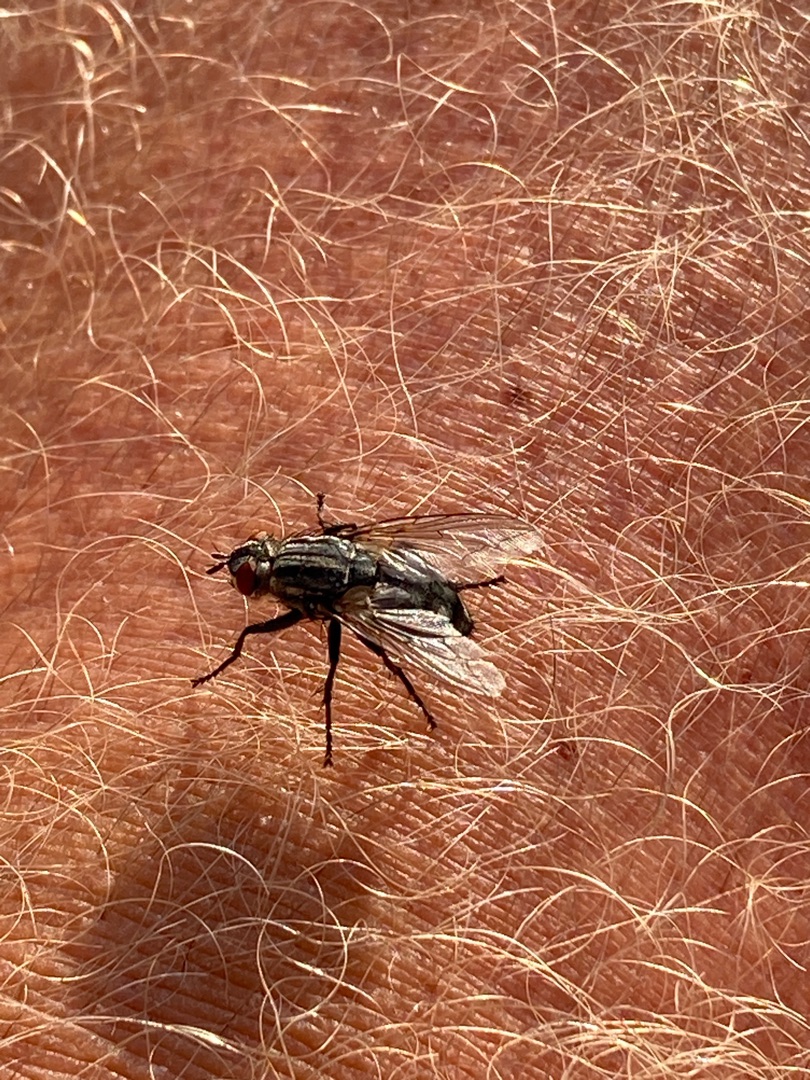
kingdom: Animalia
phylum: Arthropoda
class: Insecta
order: Diptera
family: Sarcophagidae
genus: Sarcophaga
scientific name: Sarcophaga
